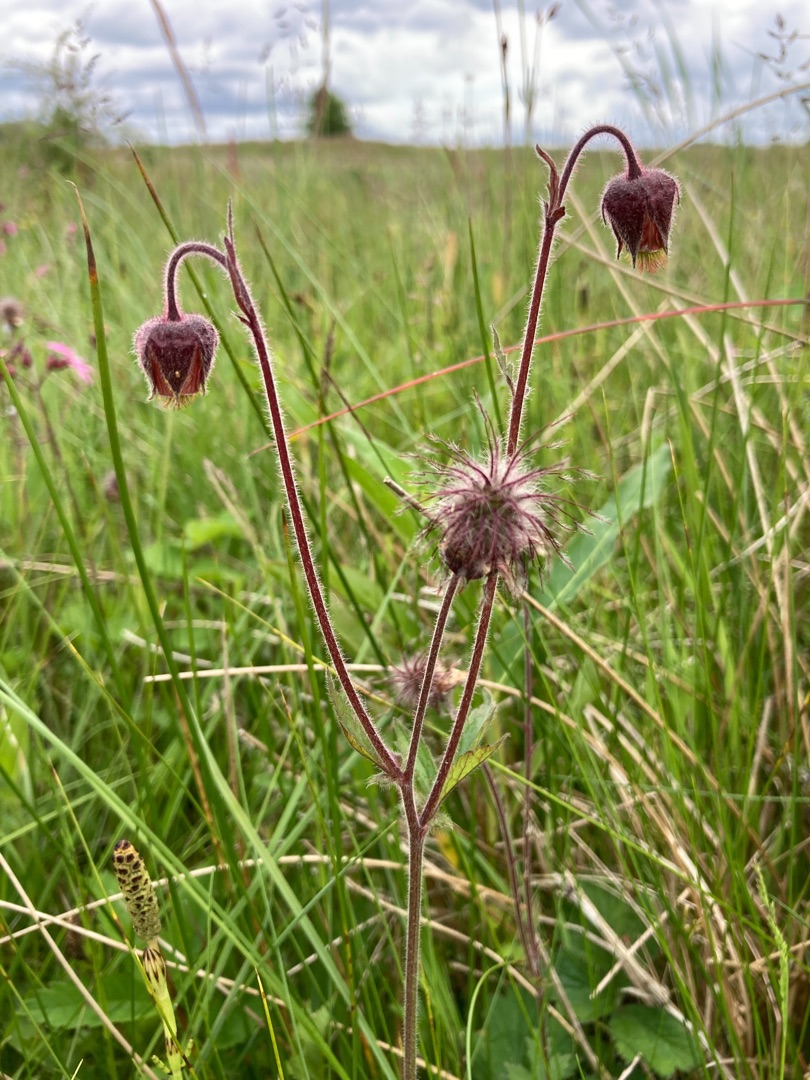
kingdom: Plantae
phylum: Tracheophyta
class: Magnoliopsida
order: Rosales
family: Rosaceae
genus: Geum
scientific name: Geum rivale
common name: Eng-nellikerod
